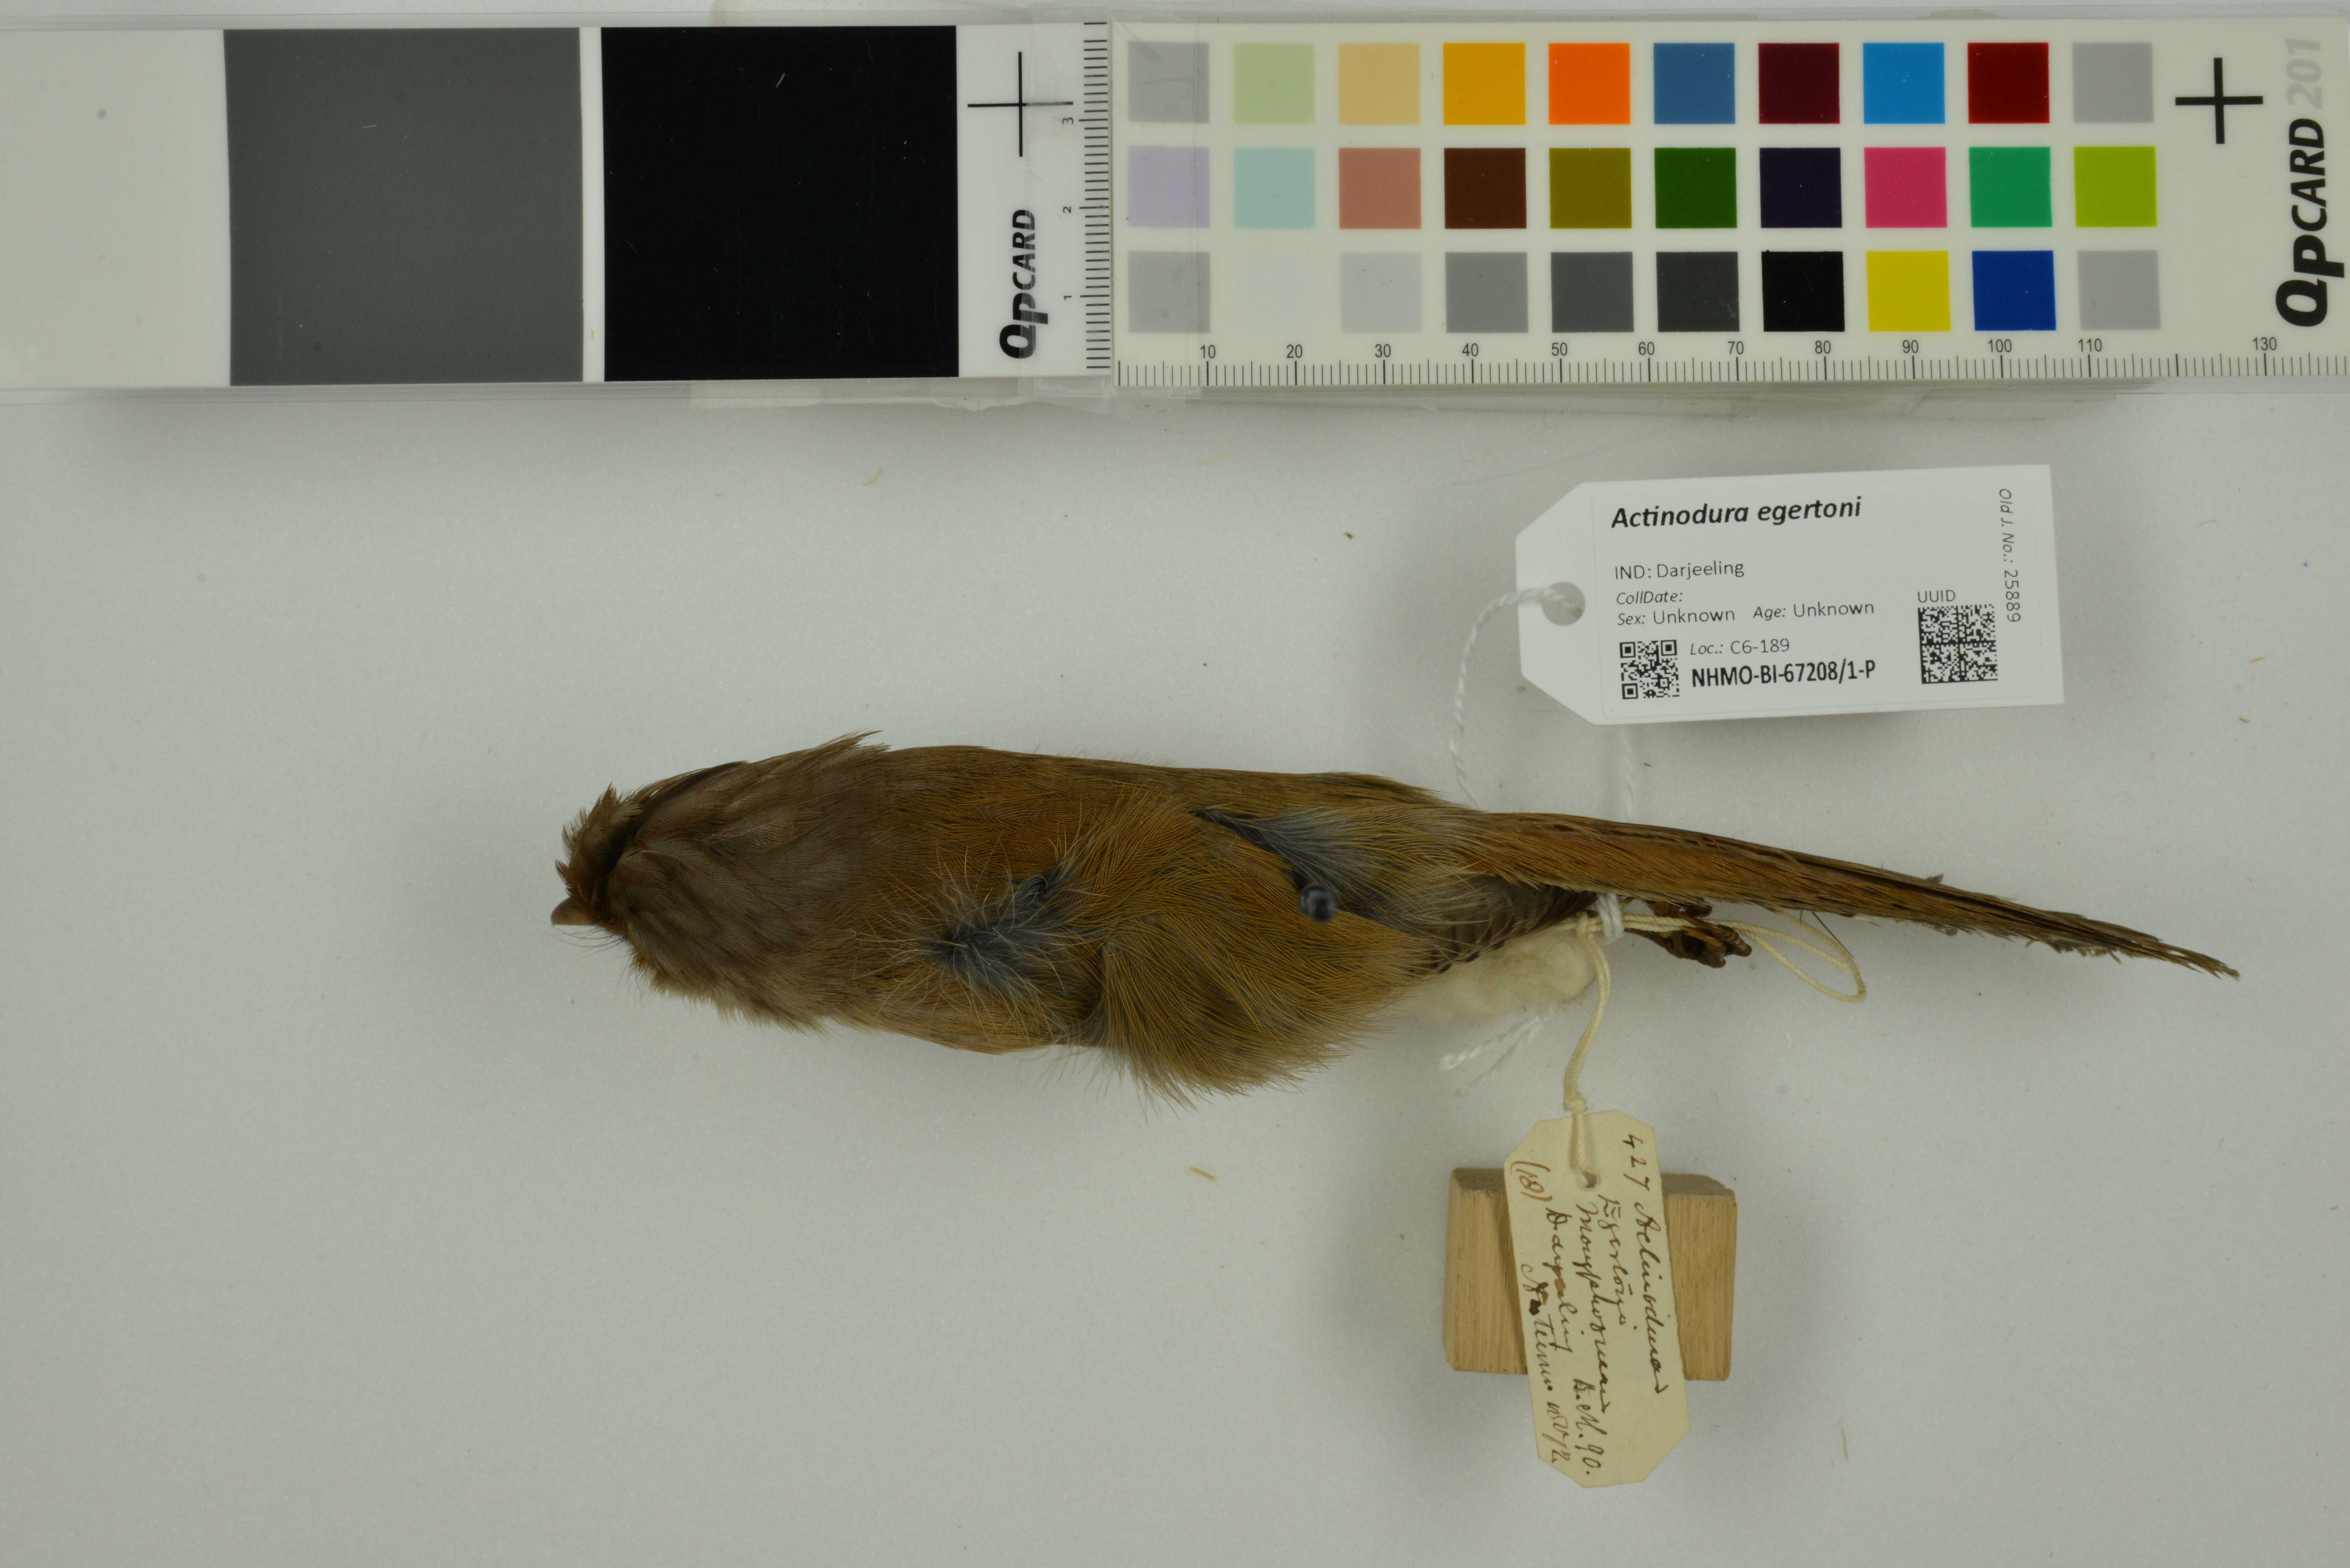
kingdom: Animalia
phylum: Chordata
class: Aves
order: Passeriformes
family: Leiothrichidae
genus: Actinodura
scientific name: Actinodura egertoni
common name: Rusty-fronted barwing
